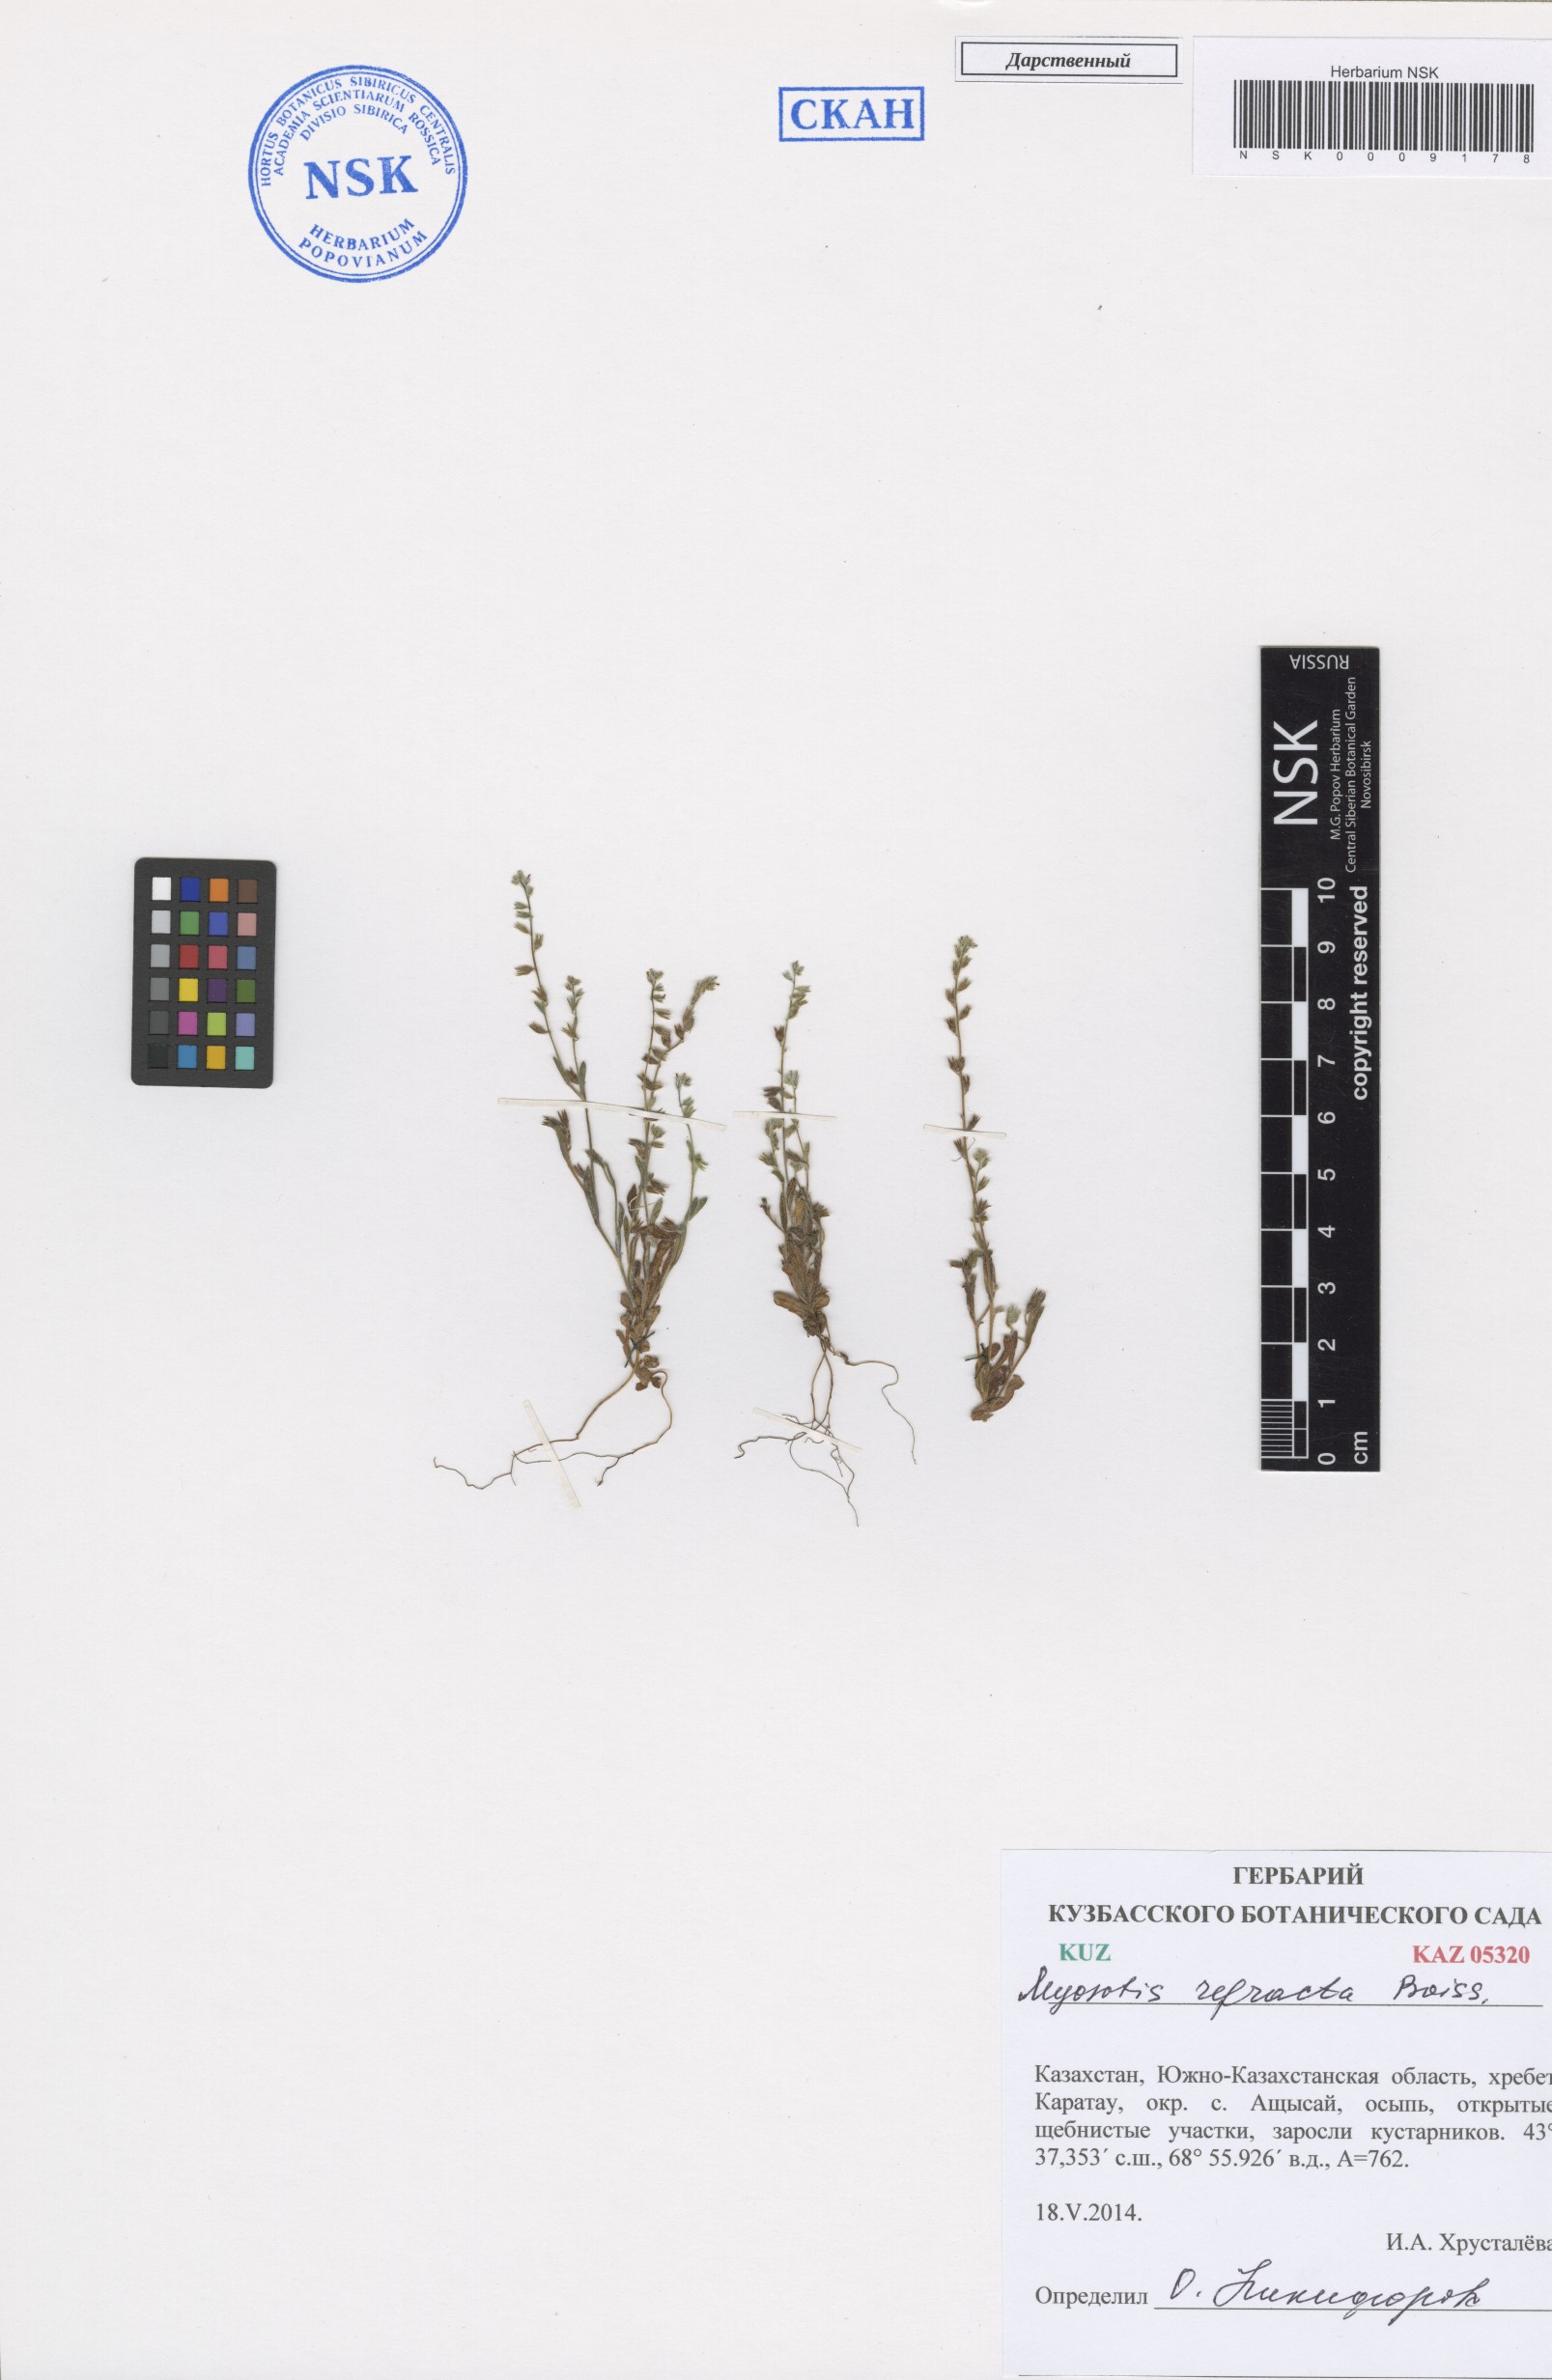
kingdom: Plantae
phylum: Tracheophyta
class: Magnoliopsida
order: Boraginales
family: Boraginaceae
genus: Myosotis
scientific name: Myosotis refracta
